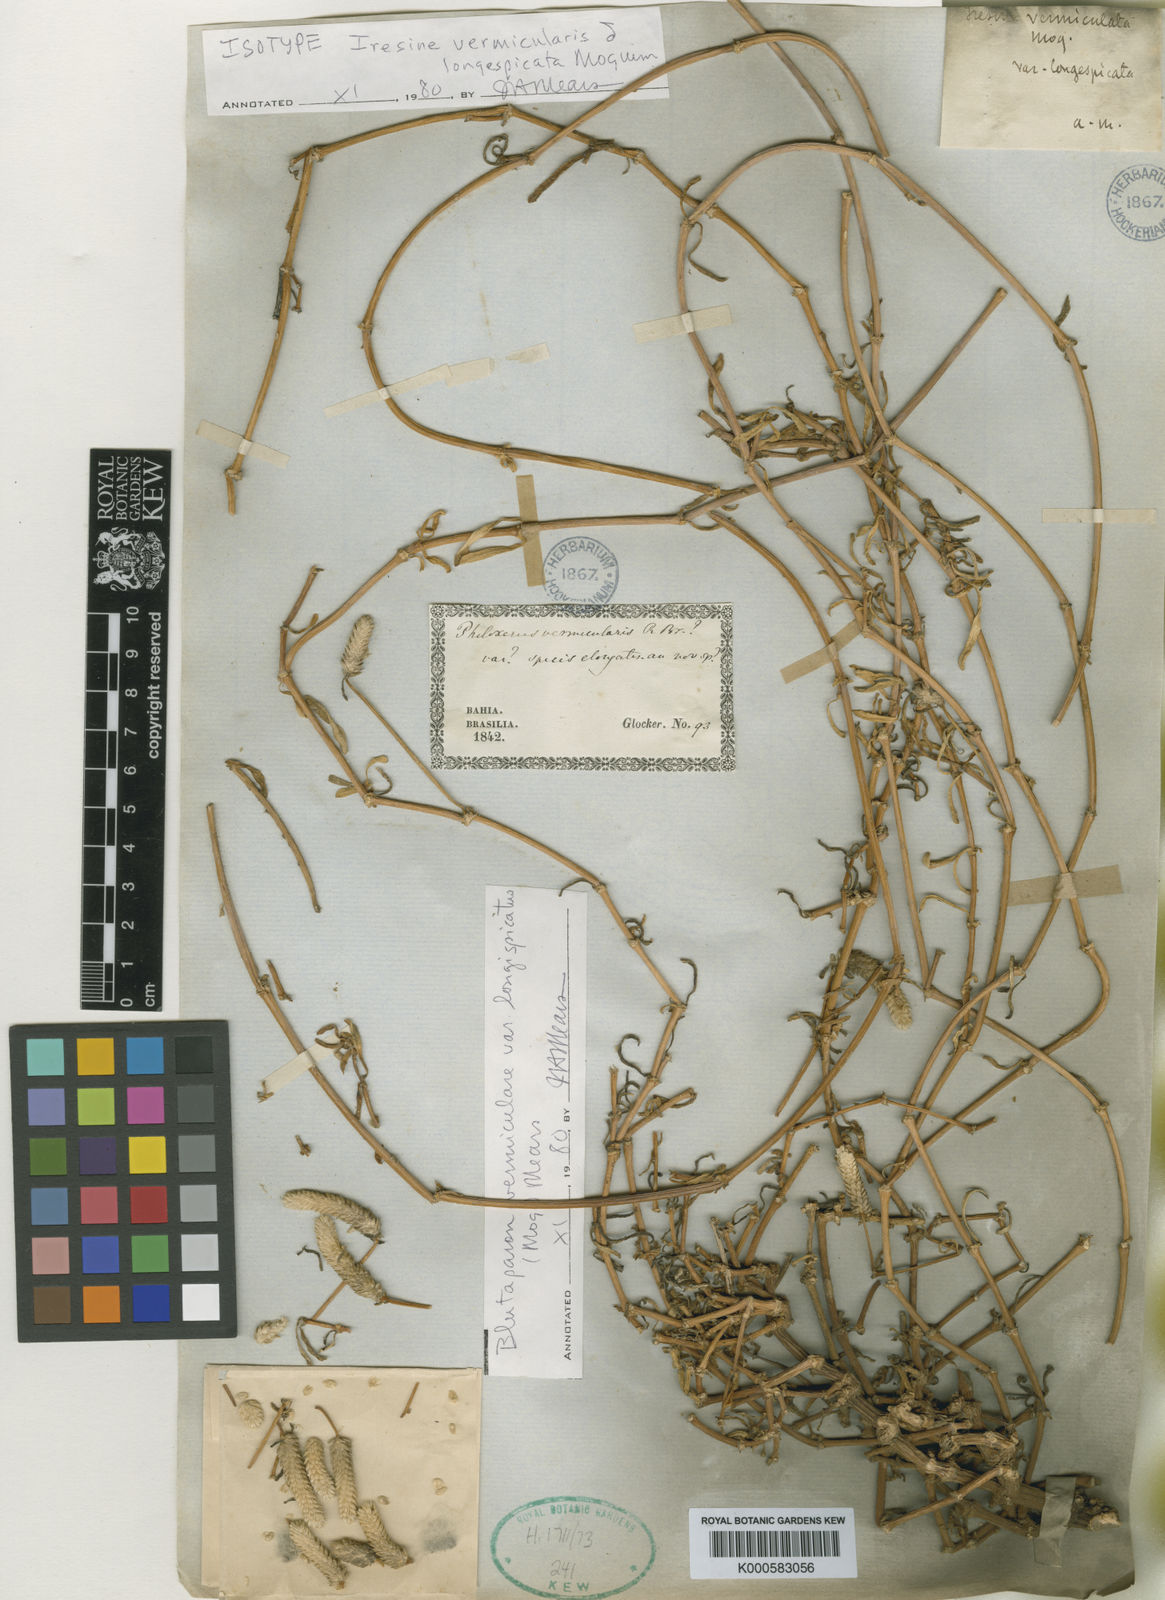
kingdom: Plantae
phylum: Tracheophyta
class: Magnoliopsida
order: Caryophyllales
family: Amaranthaceae
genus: Gomphrena
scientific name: Gomphrena vermicularis
